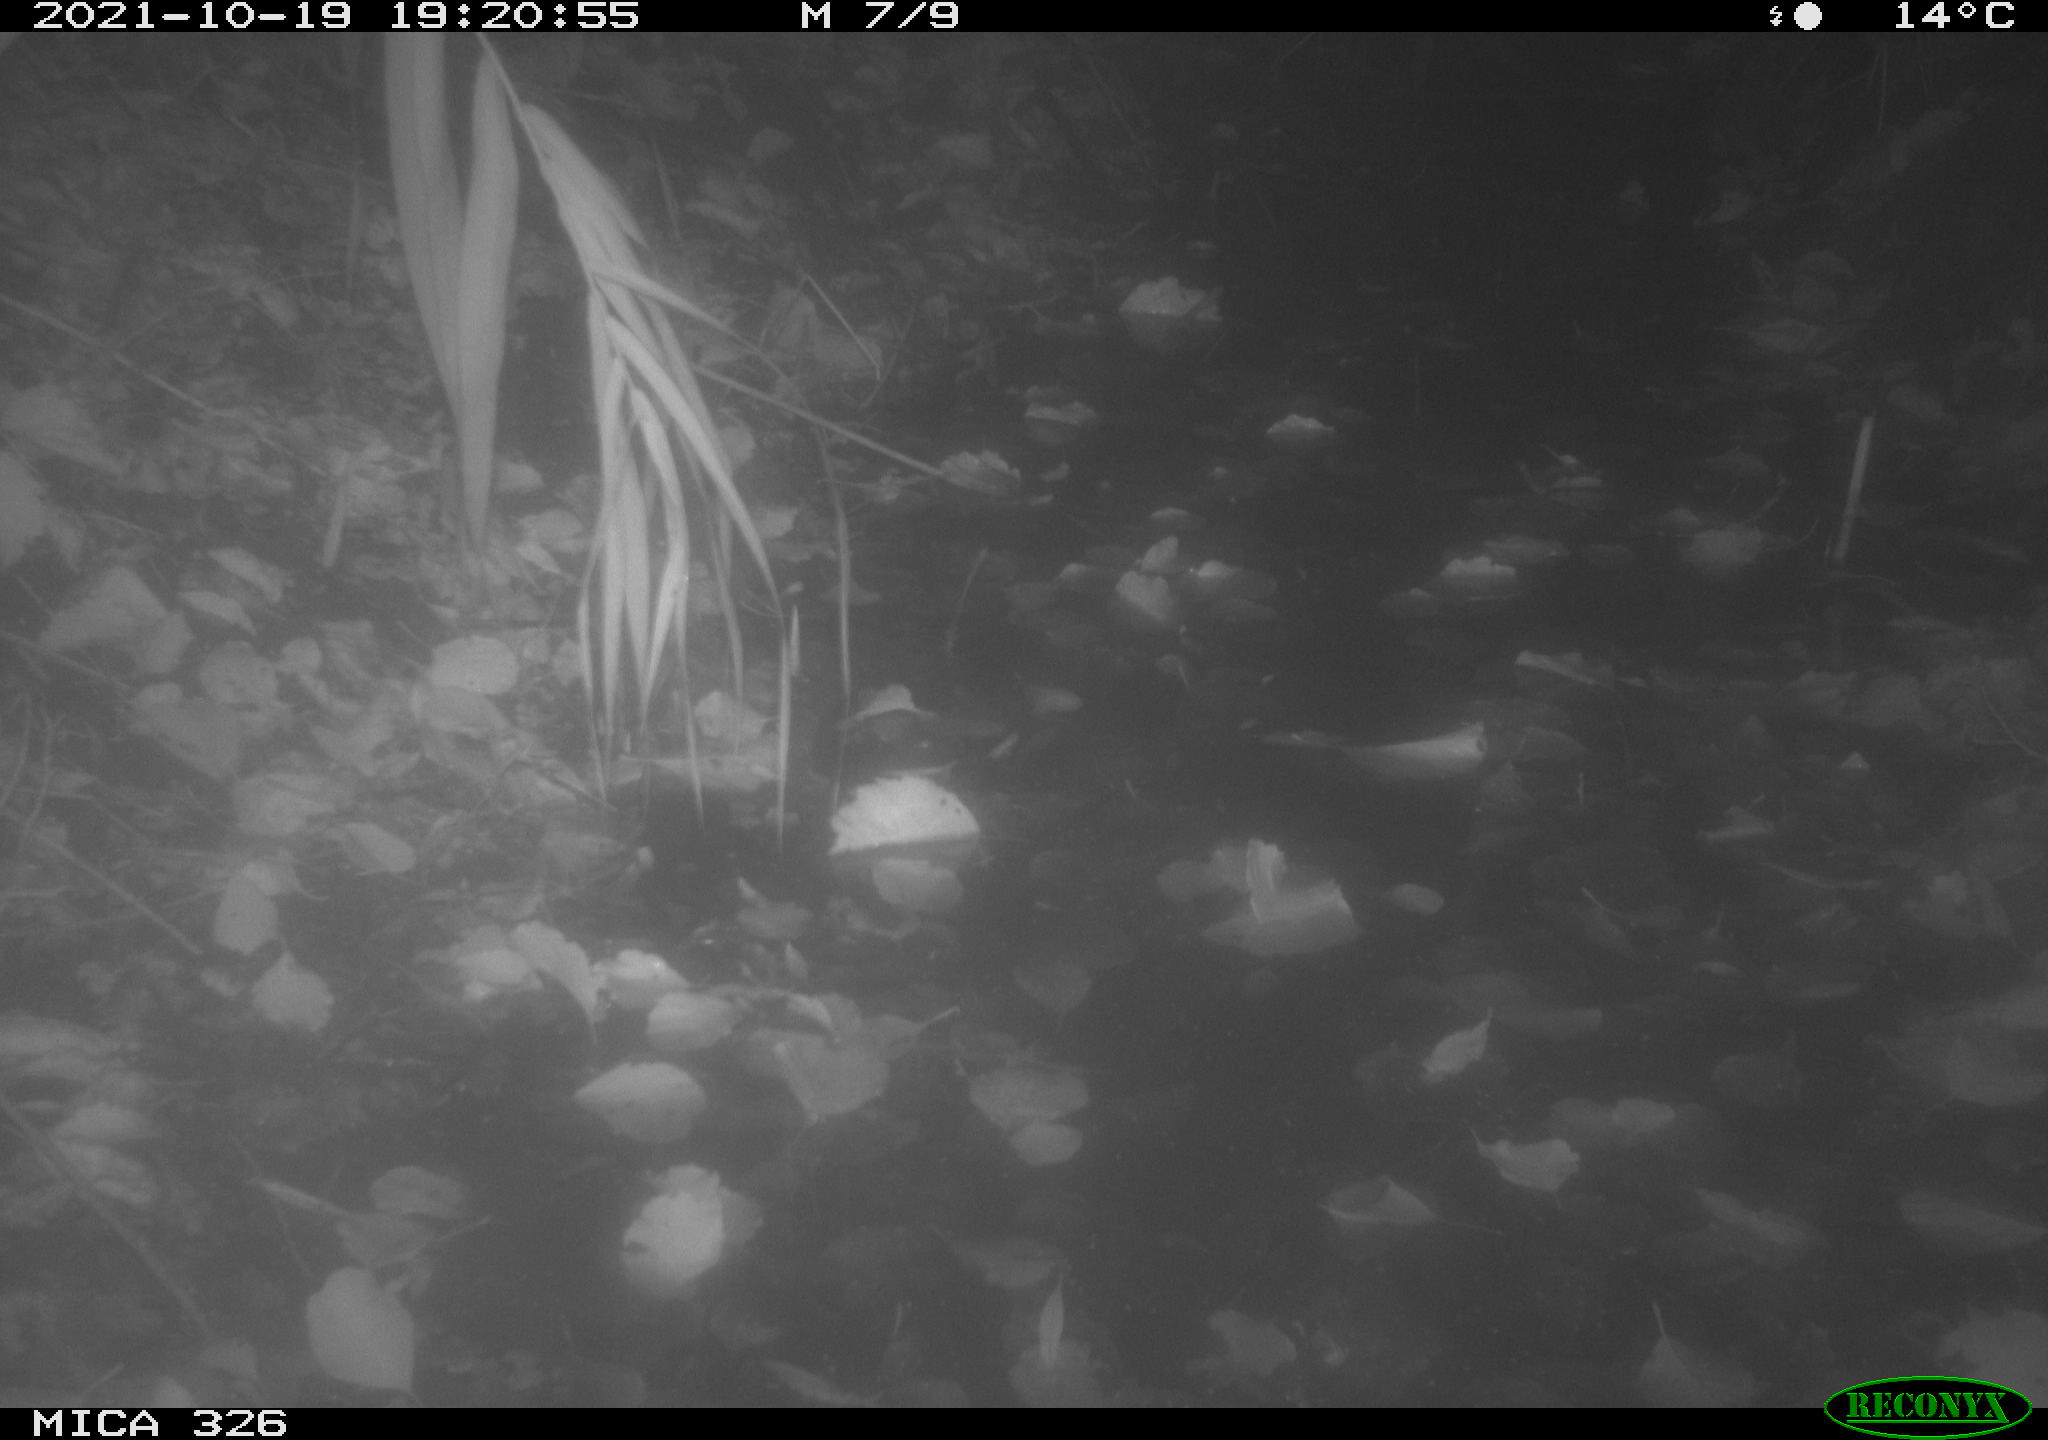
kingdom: Animalia
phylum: Chordata
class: Mammalia
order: Rodentia
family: Muridae
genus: Rattus
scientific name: Rattus norvegicus
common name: Brown rat
